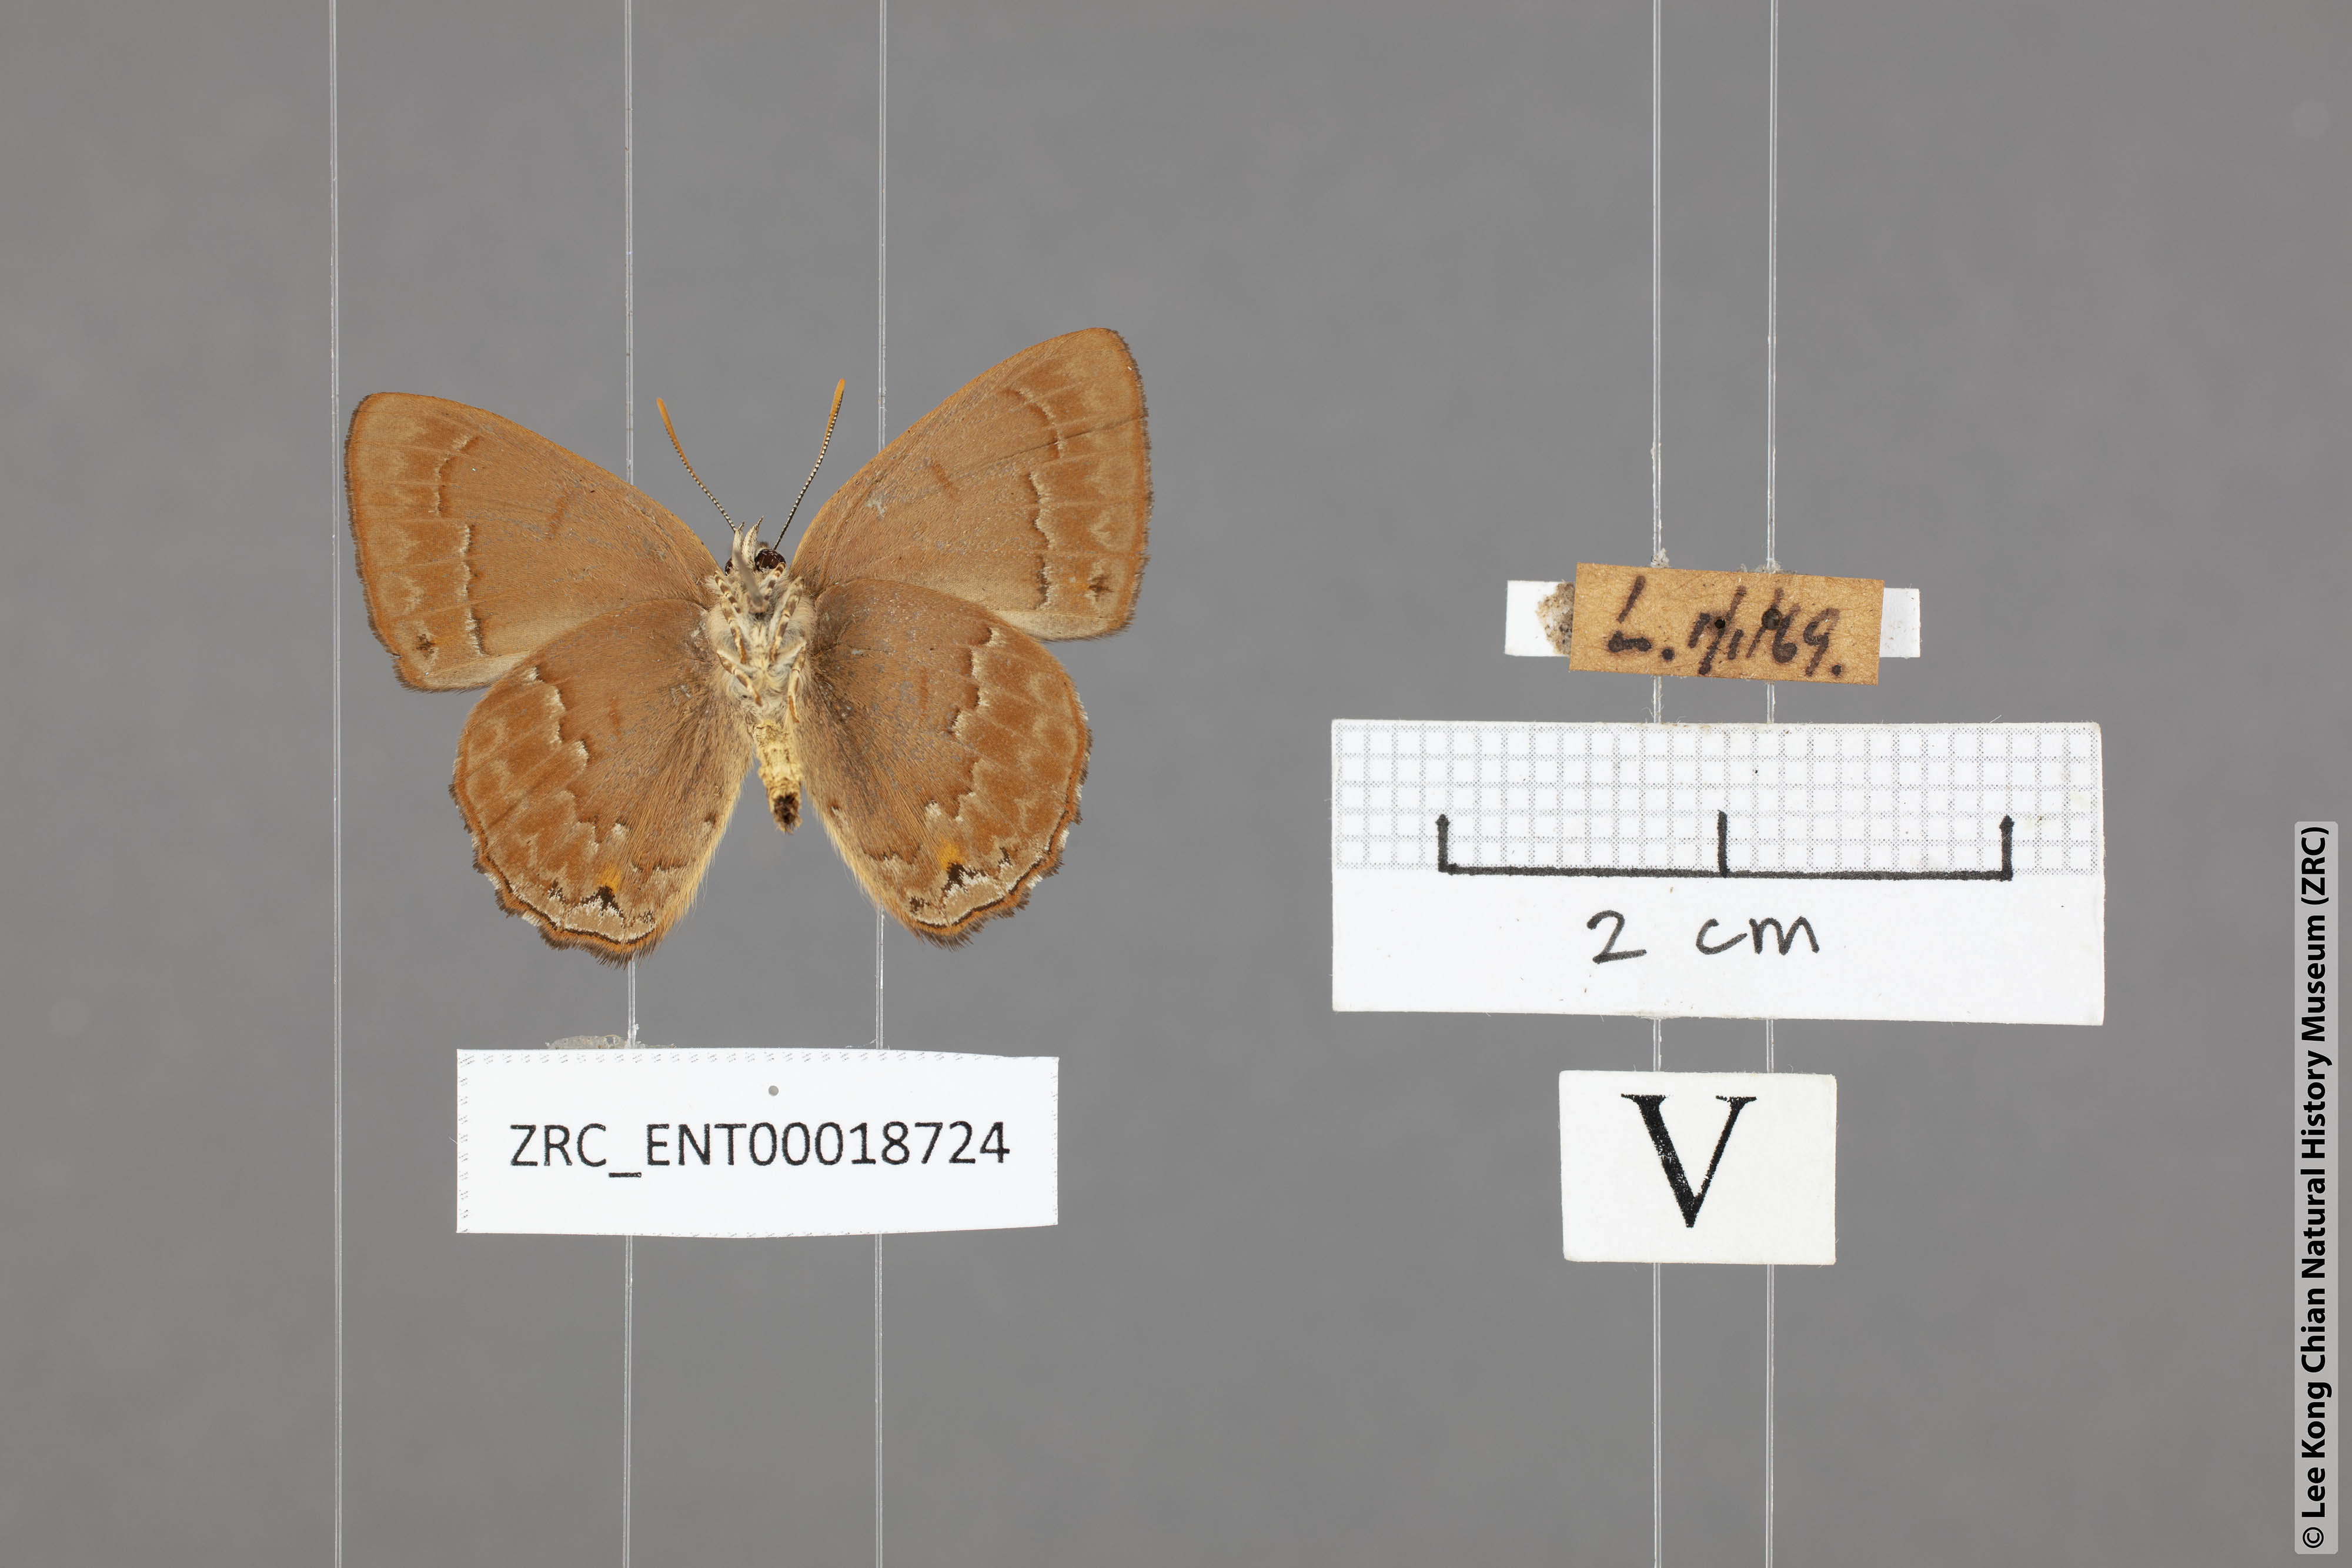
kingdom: Animalia
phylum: Arthropoda
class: Insecta
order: Lepidoptera
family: Lycaenidae
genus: Deramas
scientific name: Deramas livena
